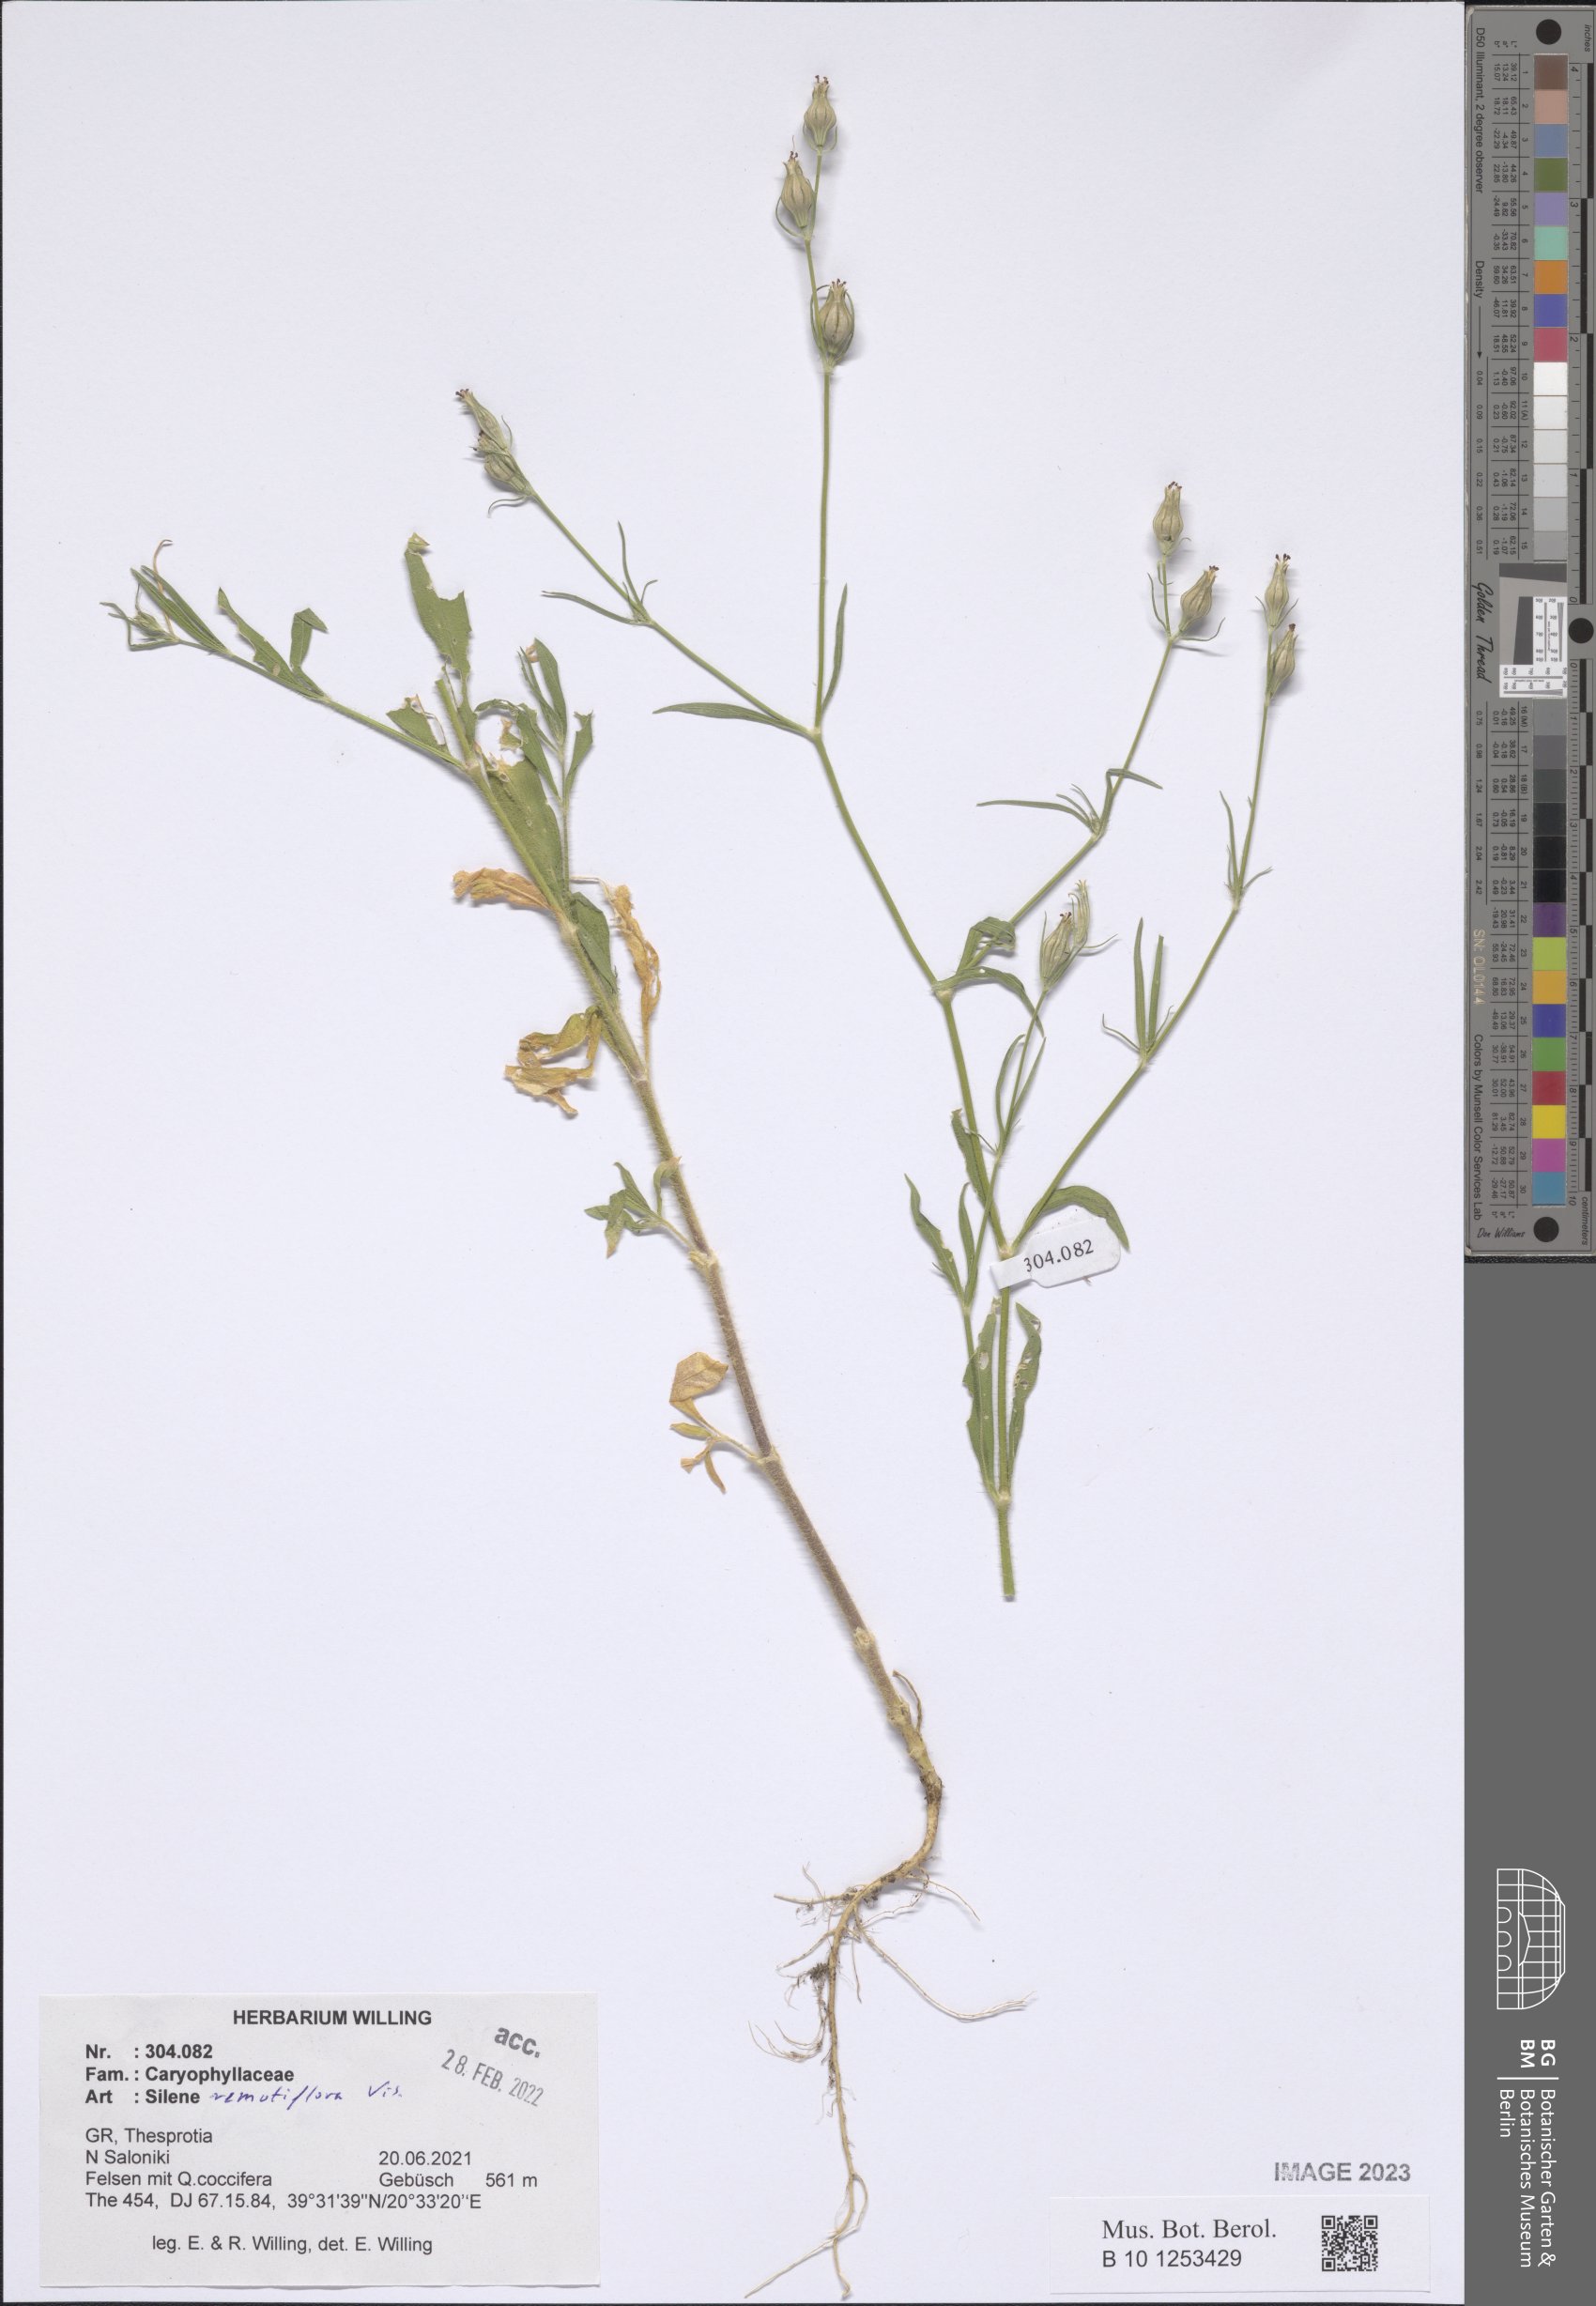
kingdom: Plantae
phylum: Tracheophyta
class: Magnoliopsida
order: Caryophyllales
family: Caryophyllaceae
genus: Silene
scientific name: Silene remotiflora
